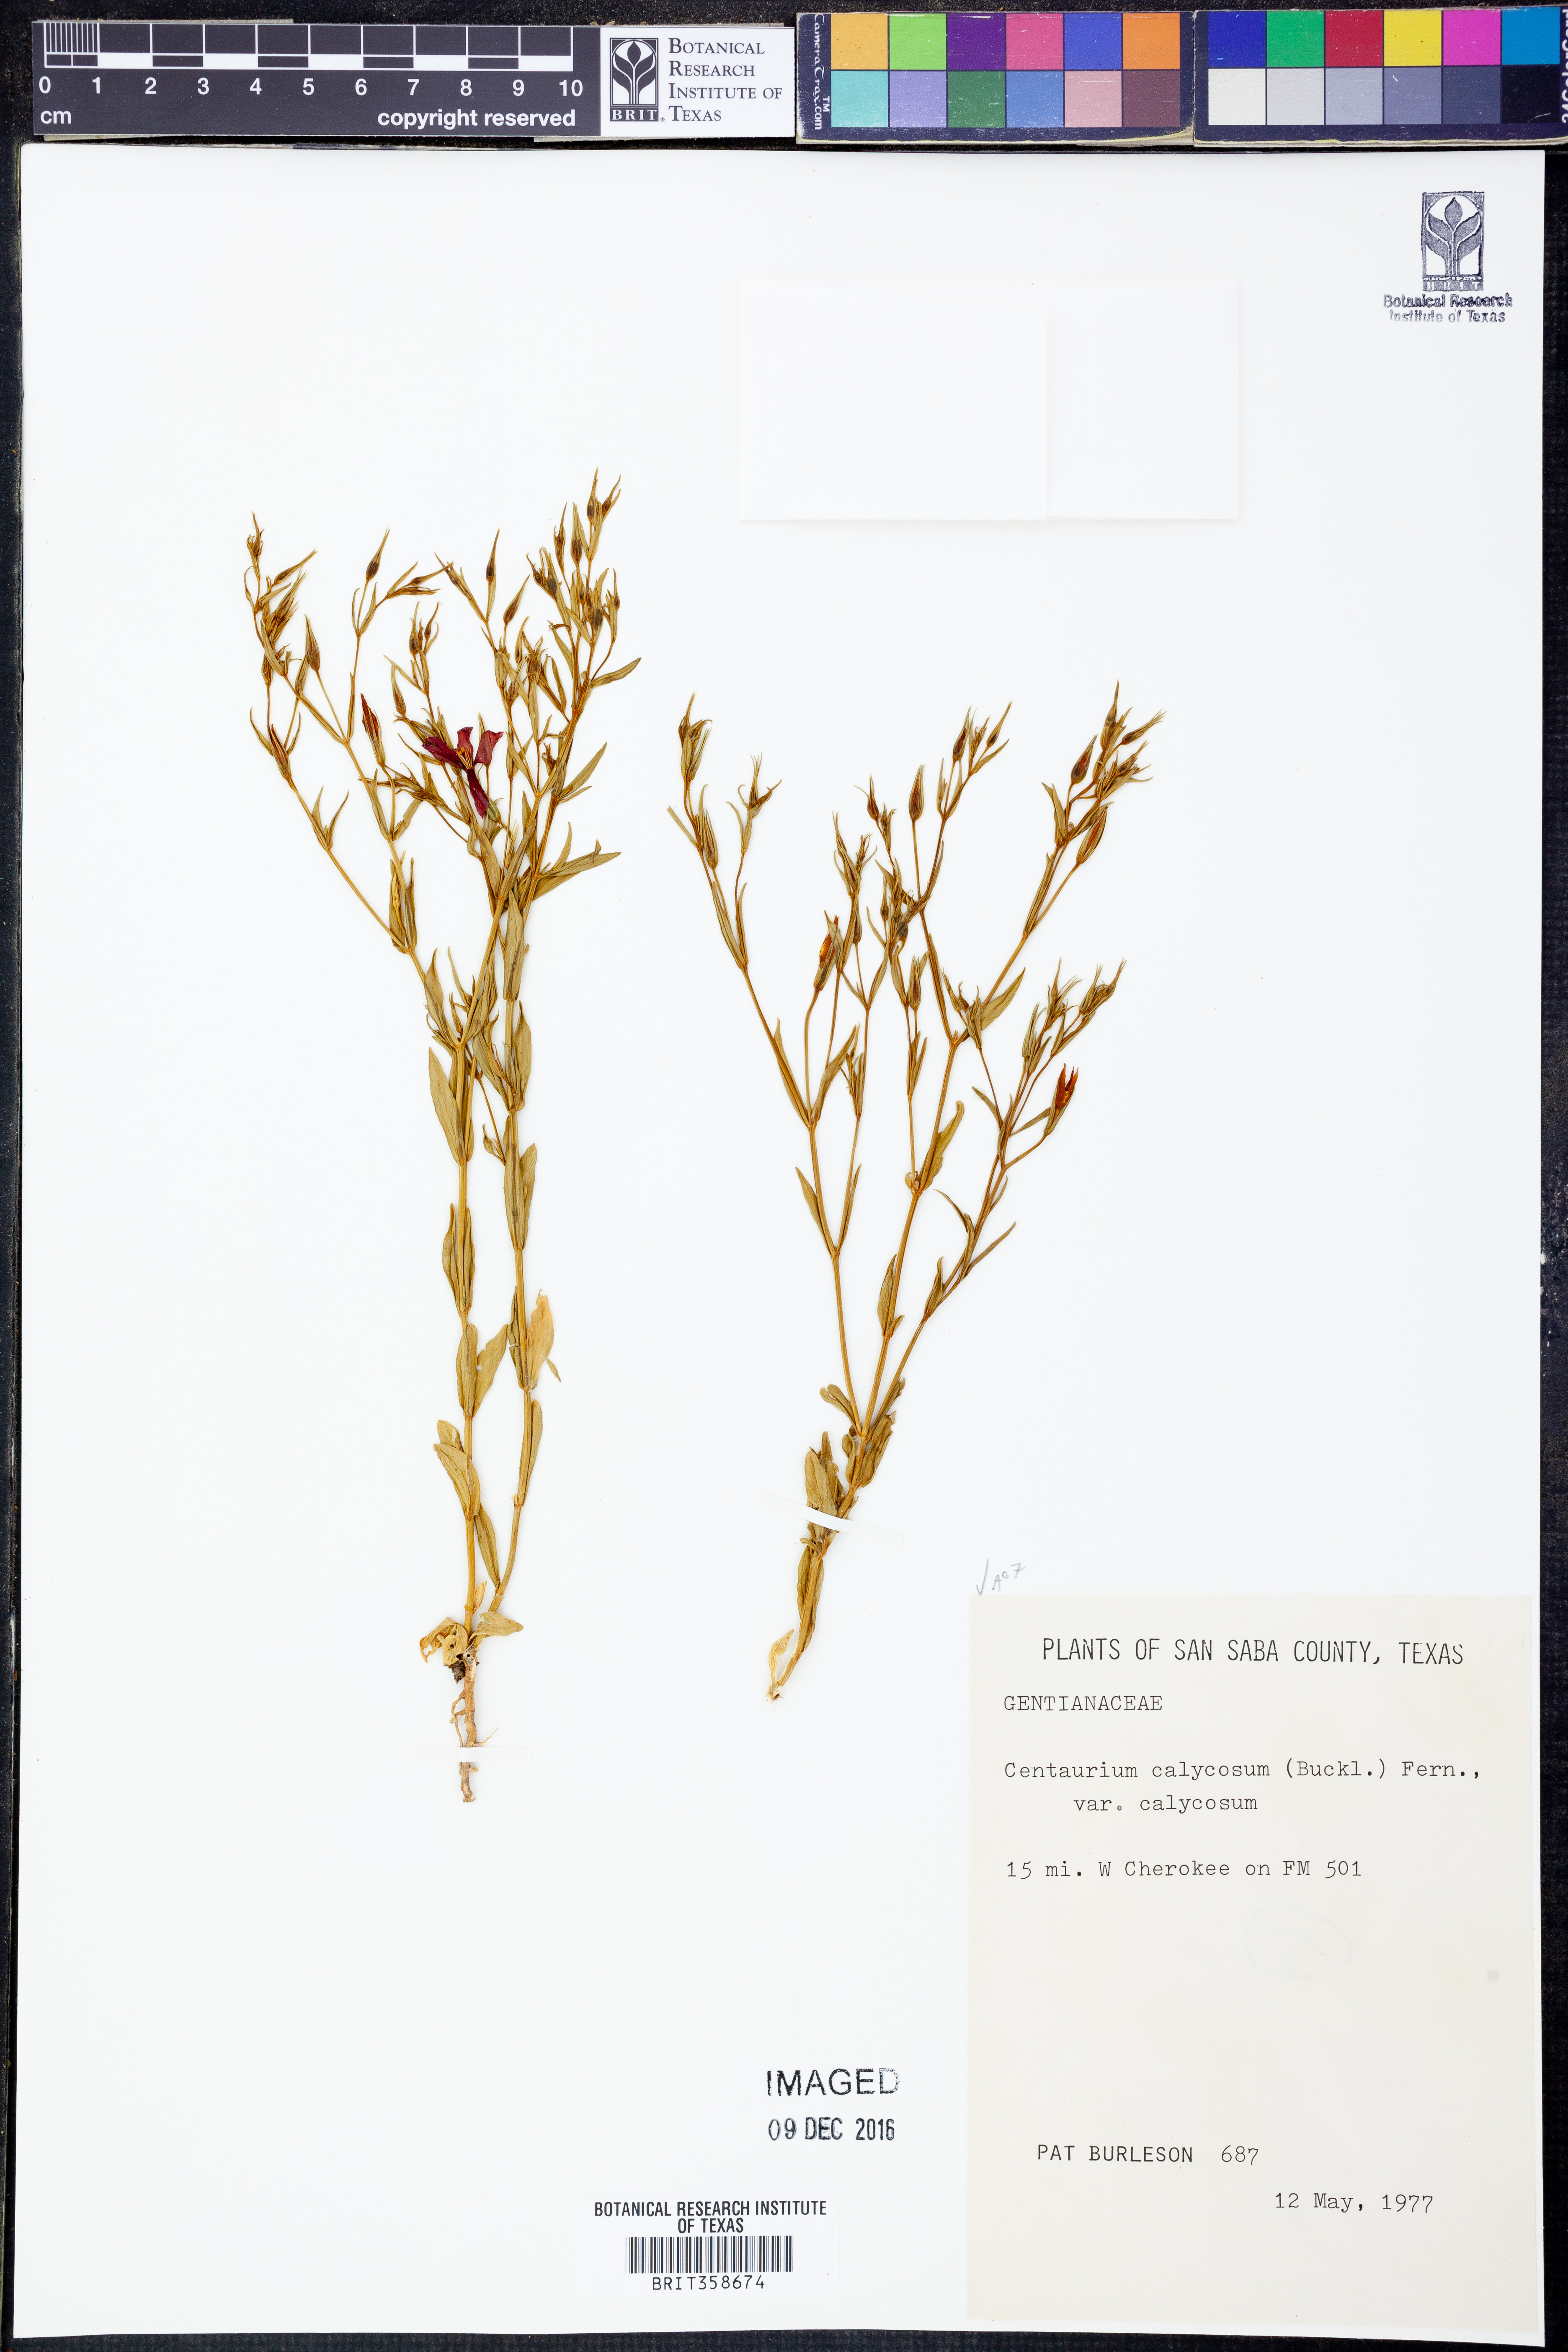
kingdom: Plantae
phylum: Tracheophyta
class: Magnoliopsida
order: Gentianales
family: Gentianaceae
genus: Zeltnera
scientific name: Zeltnera calycosa
